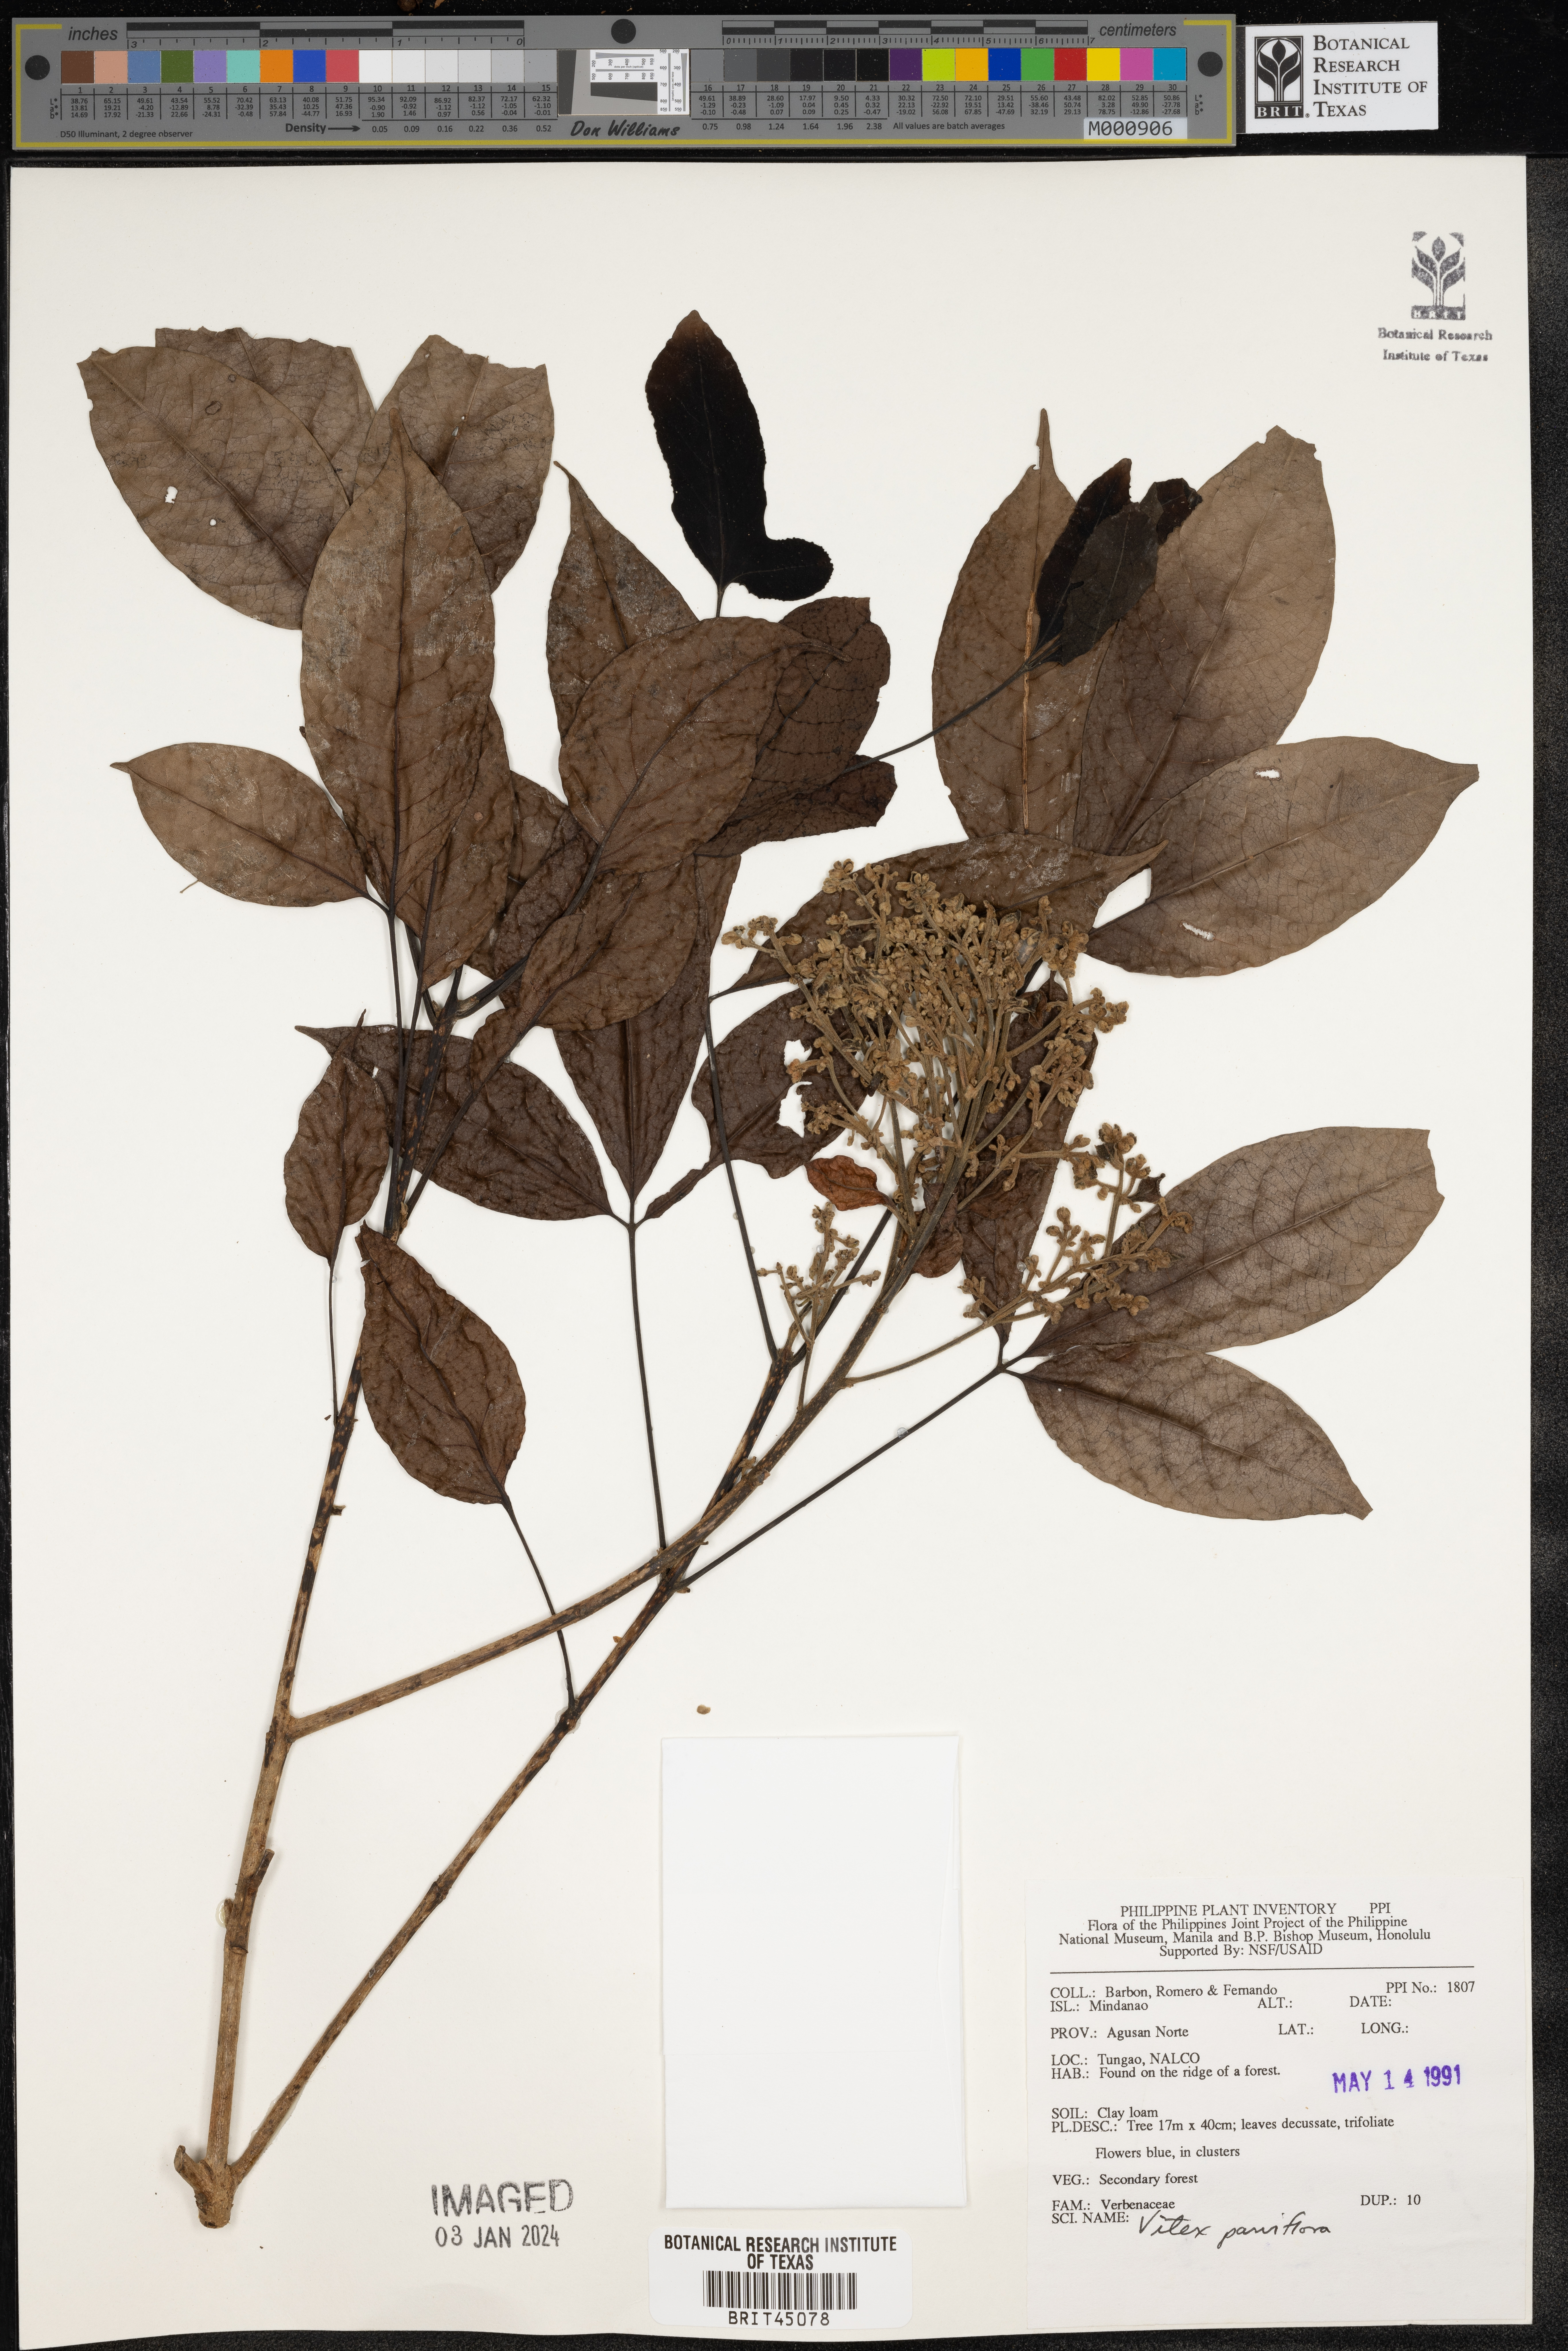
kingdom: Plantae
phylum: Tracheophyta
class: Magnoliopsida
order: Lamiales
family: Lamiaceae
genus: Vitex
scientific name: Vitex parviflora
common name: Smallflower chastetree
